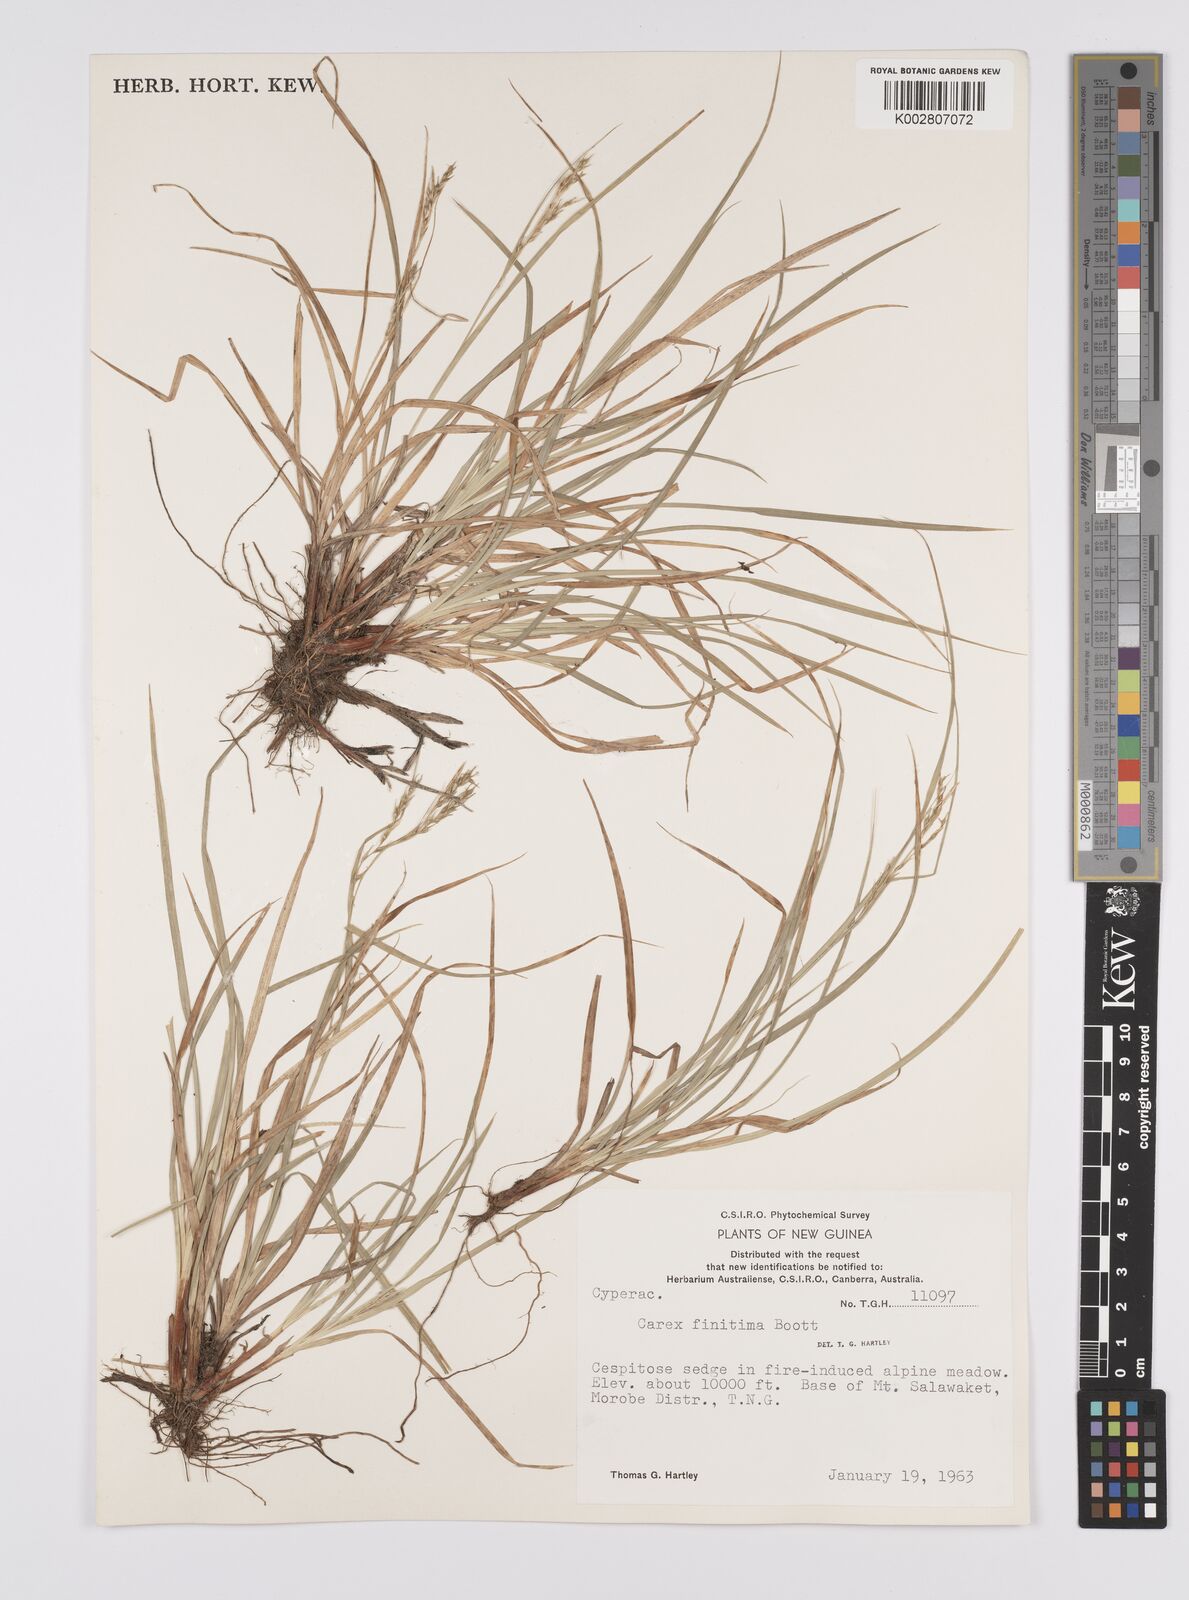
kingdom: Plantae
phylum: Tracheophyta
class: Liliopsida
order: Poales
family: Cyperaceae
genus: Carex
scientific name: Carex finitima
